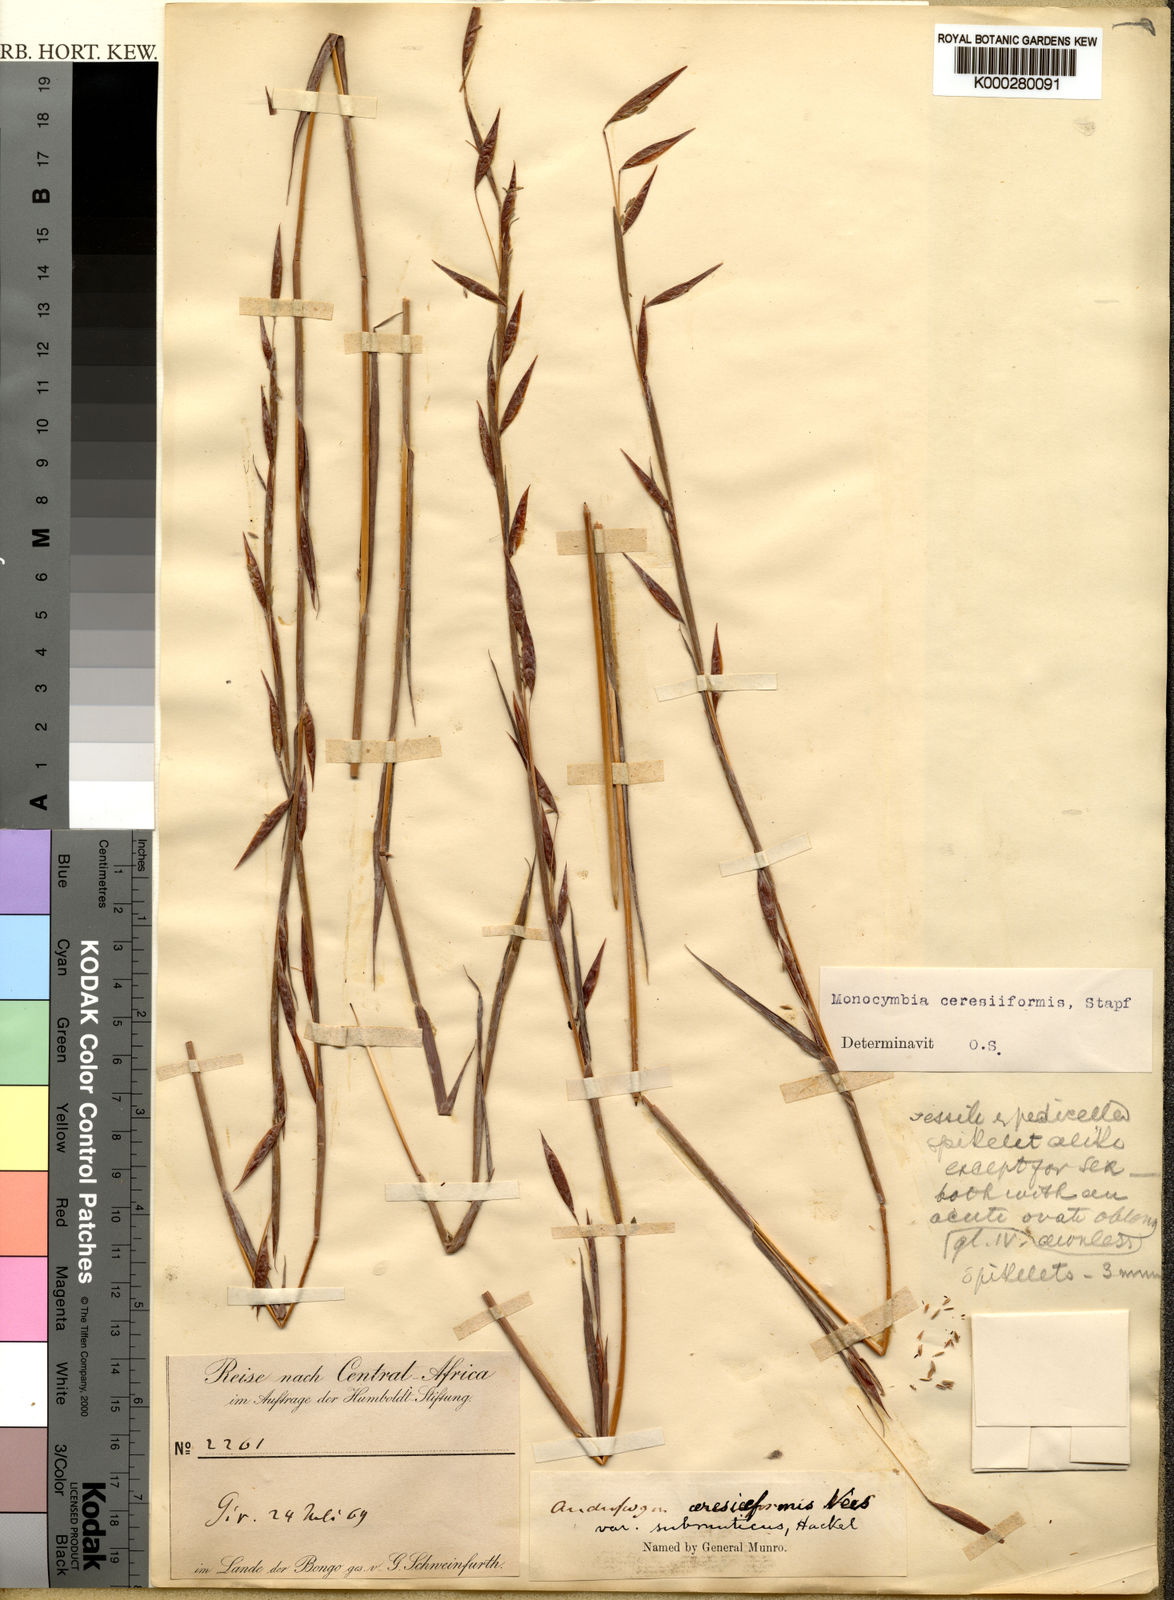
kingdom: Plantae
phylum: Tracheophyta
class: Liliopsida
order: Poales
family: Poaceae
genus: Monocymbium
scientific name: Monocymbium ceresiiforme
